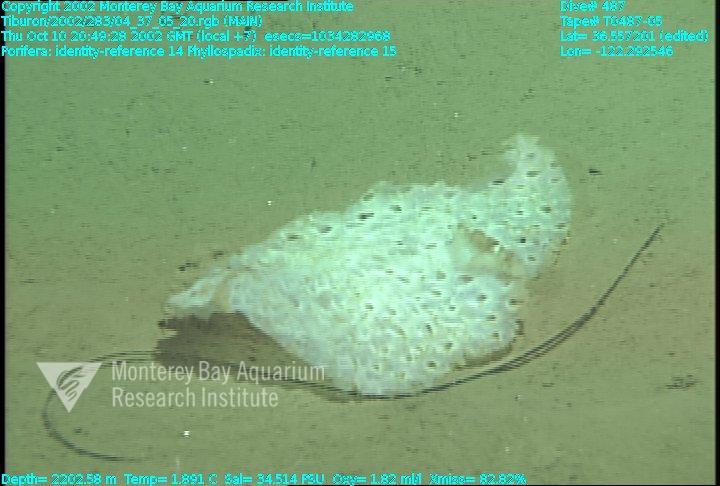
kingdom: Animalia
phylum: Porifera
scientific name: Porifera
